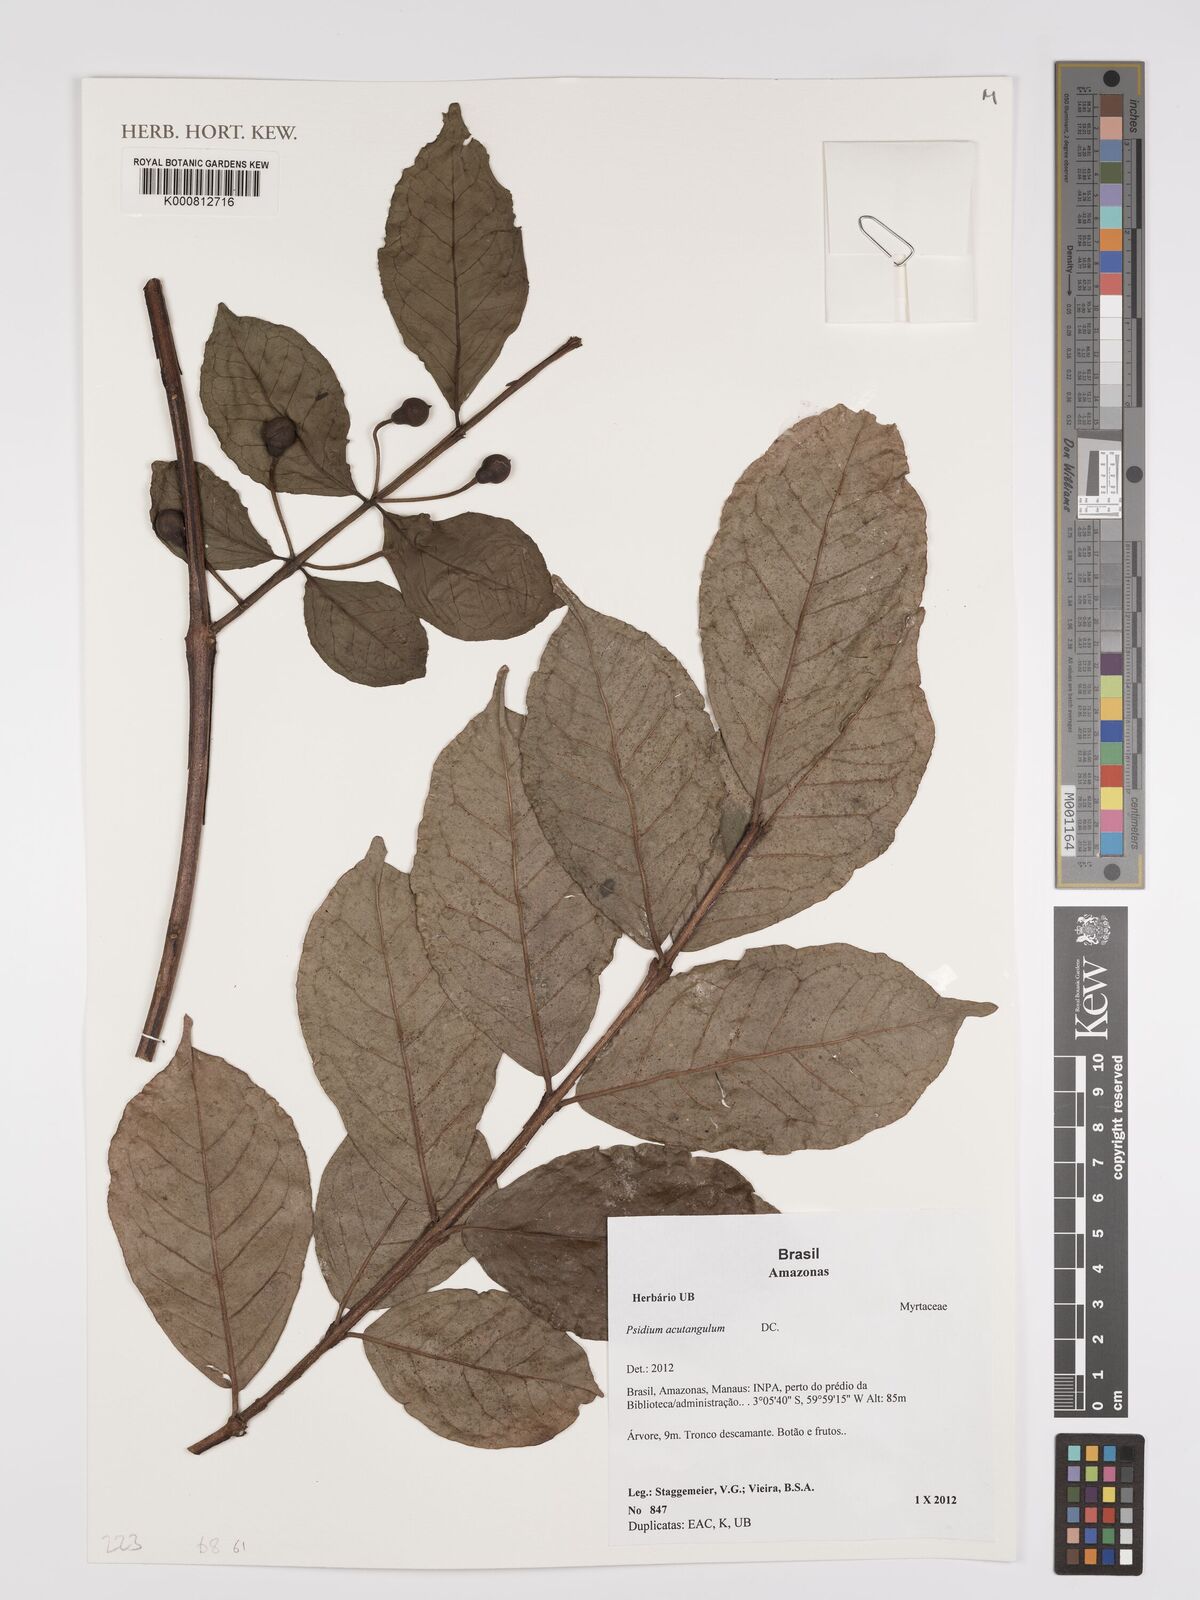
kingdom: Plantae
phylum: Tracheophyta
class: Magnoliopsida
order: Myrtales
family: Myrtaceae
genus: Psidium
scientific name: Psidium acutangulum
